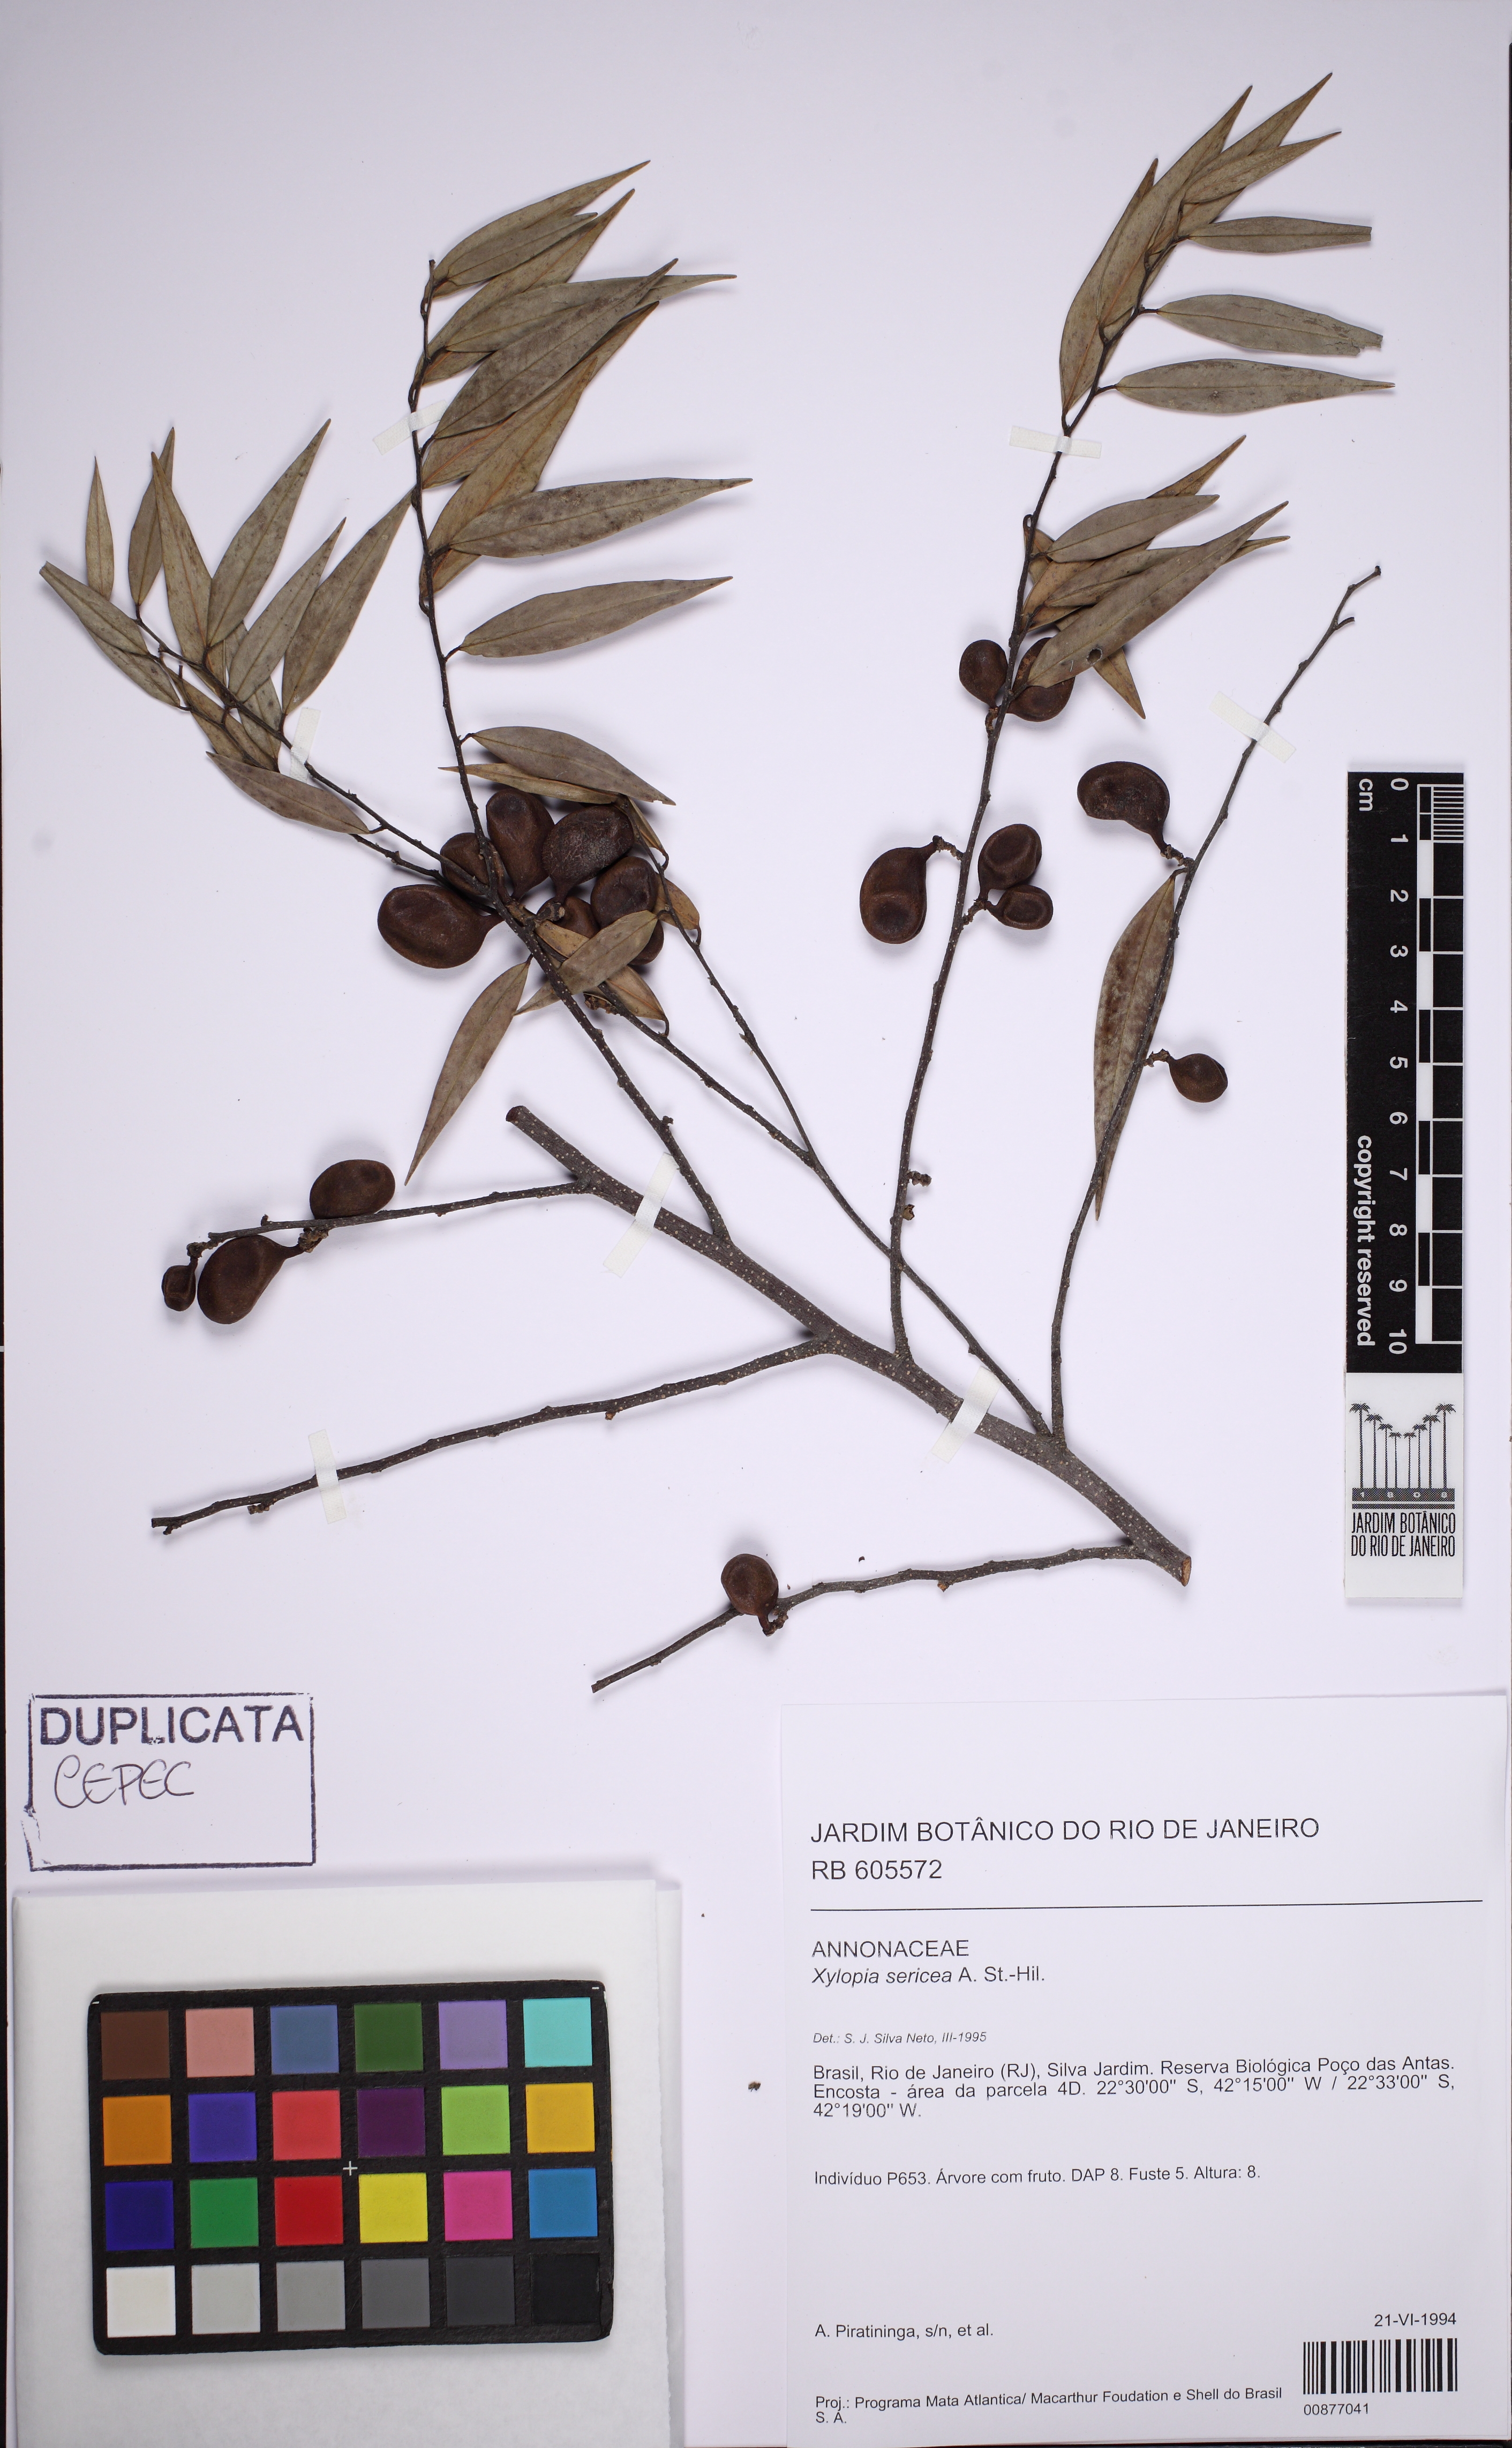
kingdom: Plantae
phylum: Tracheophyta
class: Magnoliopsida
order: Magnoliales
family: Annonaceae
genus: Xylopia
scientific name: Xylopia sericea
